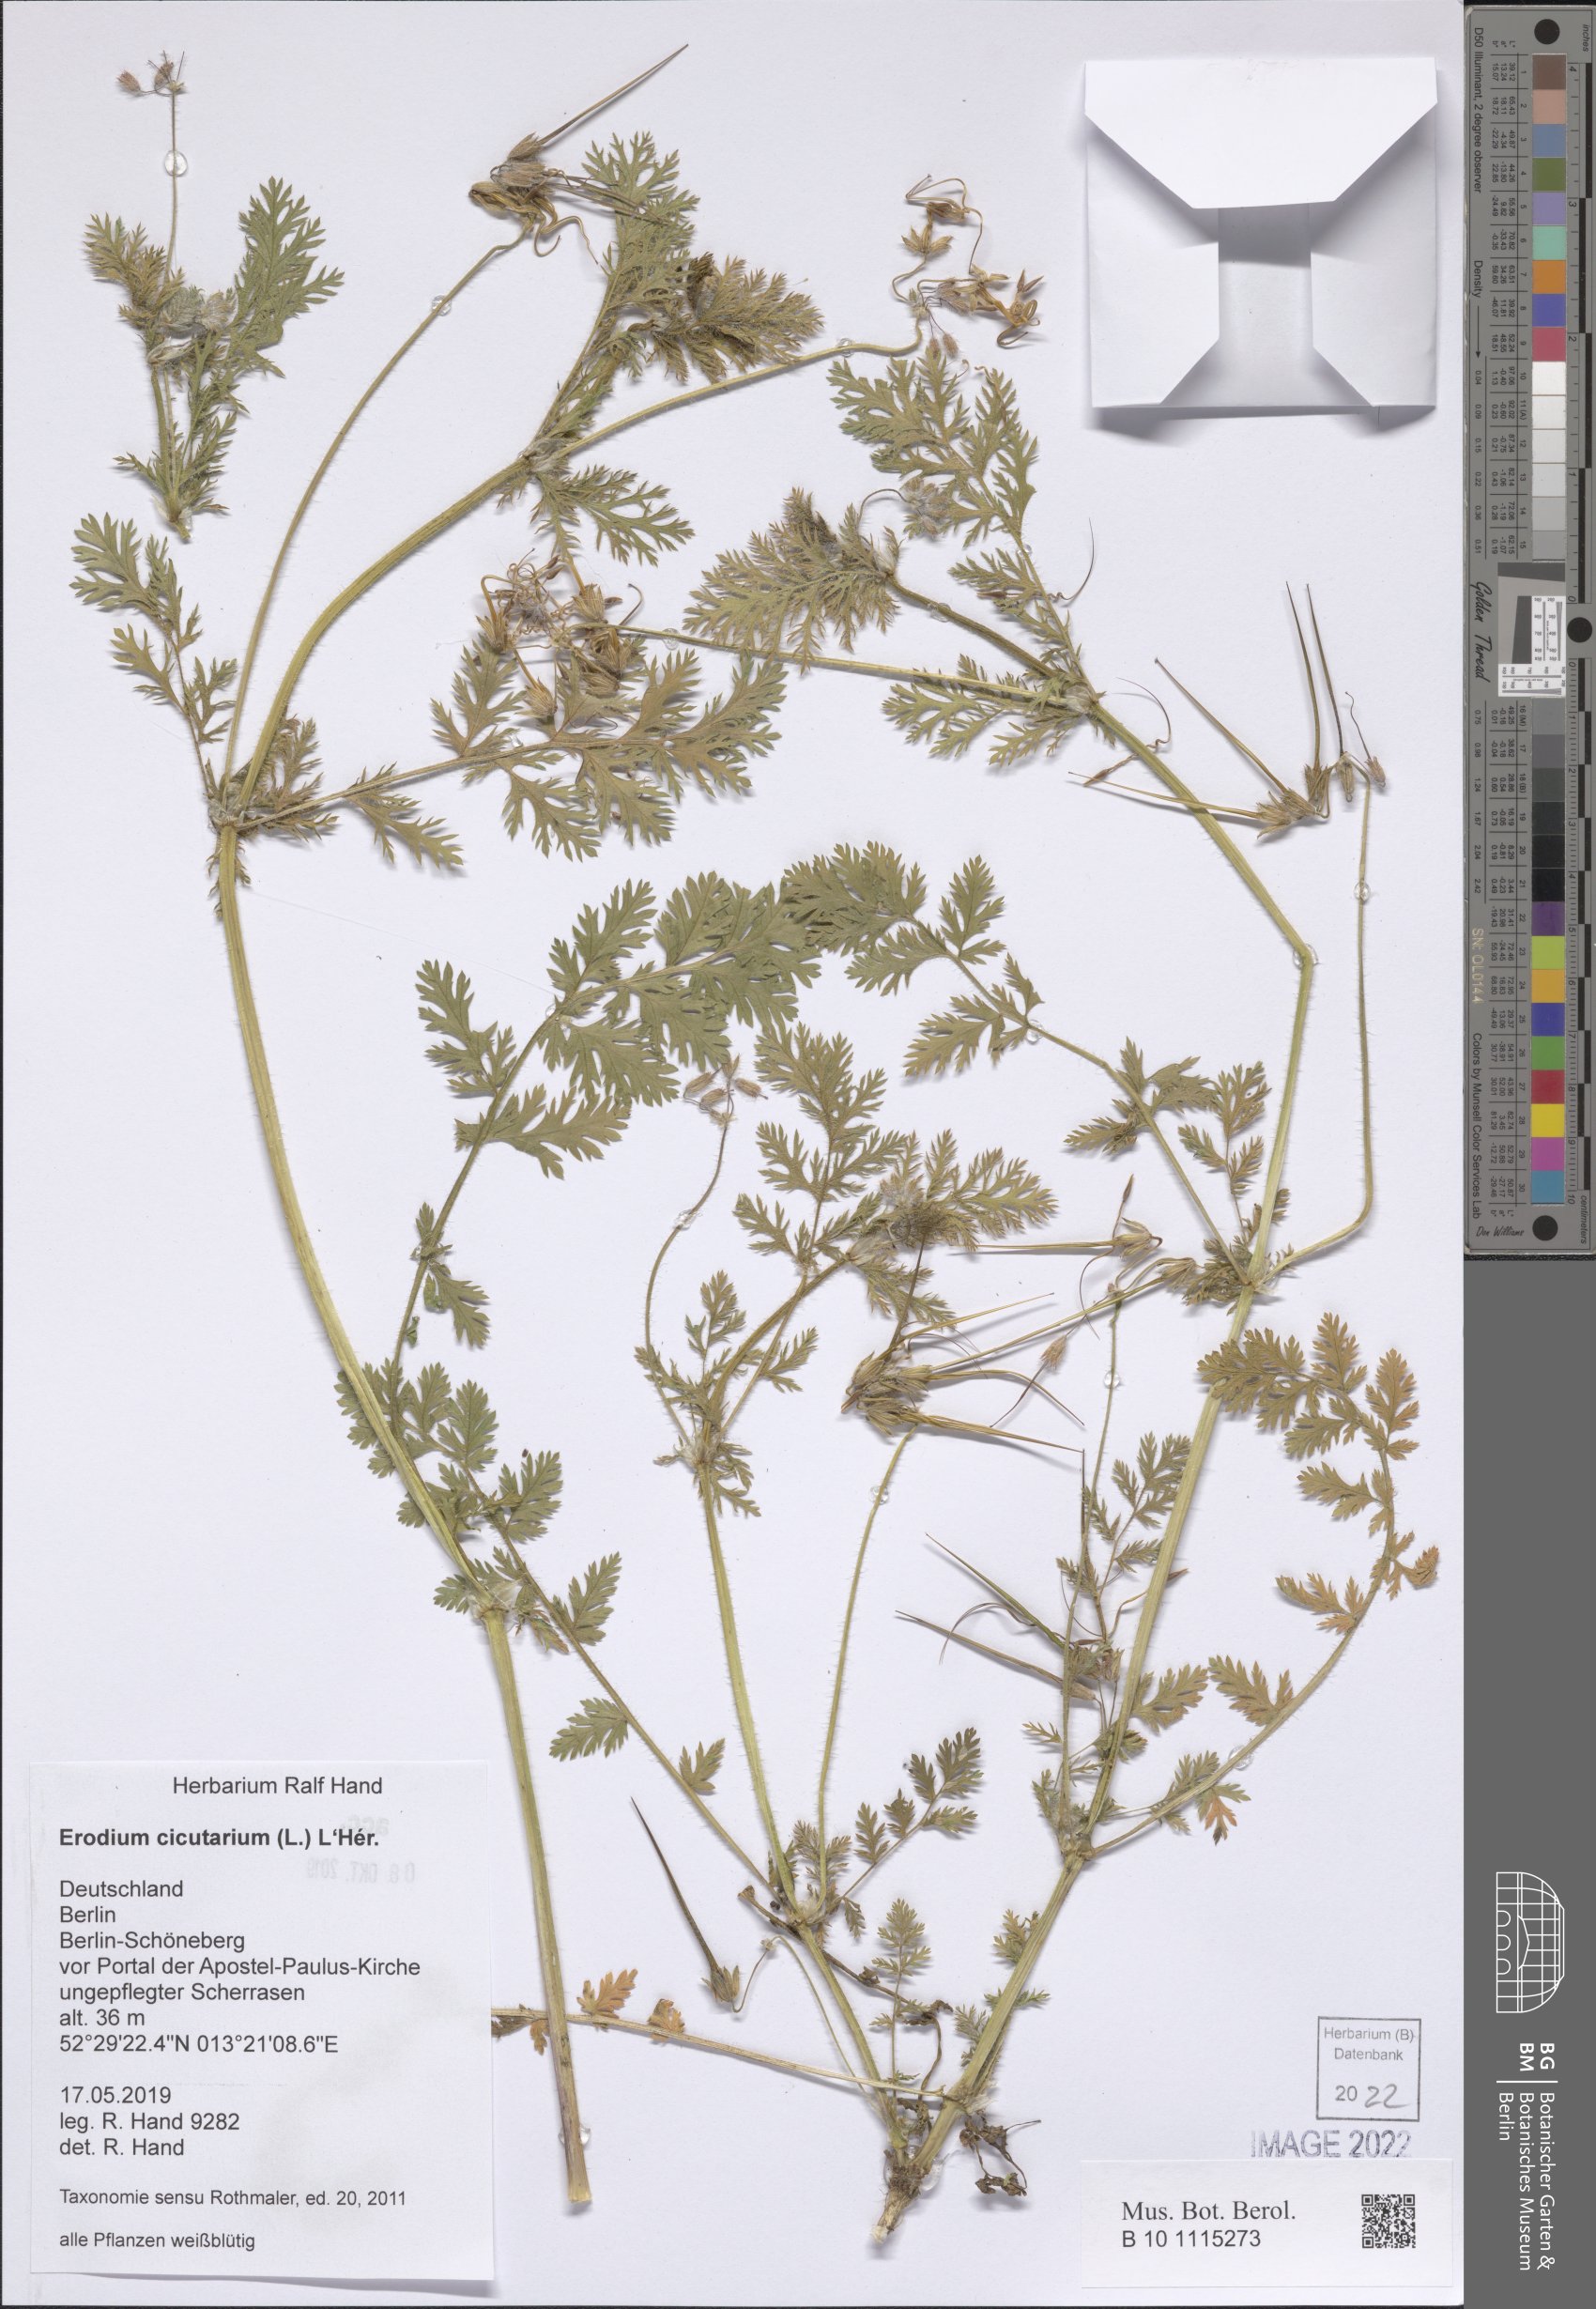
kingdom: Plantae
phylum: Tracheophyta
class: Magnoliopsida
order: Geraniales
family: Geraniaceae
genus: Erodium
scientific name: Erodium cicutarium
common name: Common stork's-bill
